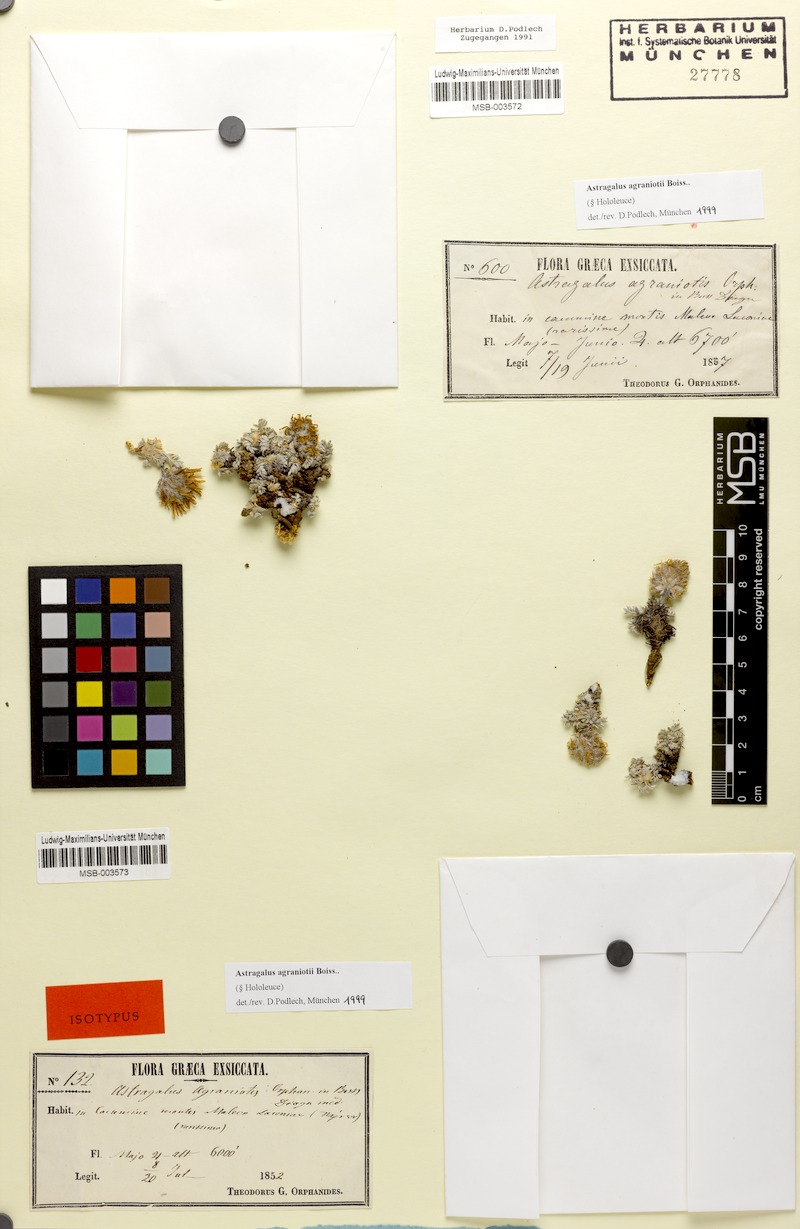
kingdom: Plantae
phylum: Tracheophyta
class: Magnoliopsida
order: Fabales
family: Fabaceae
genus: Astragalus
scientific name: Astragalus agraniotii
